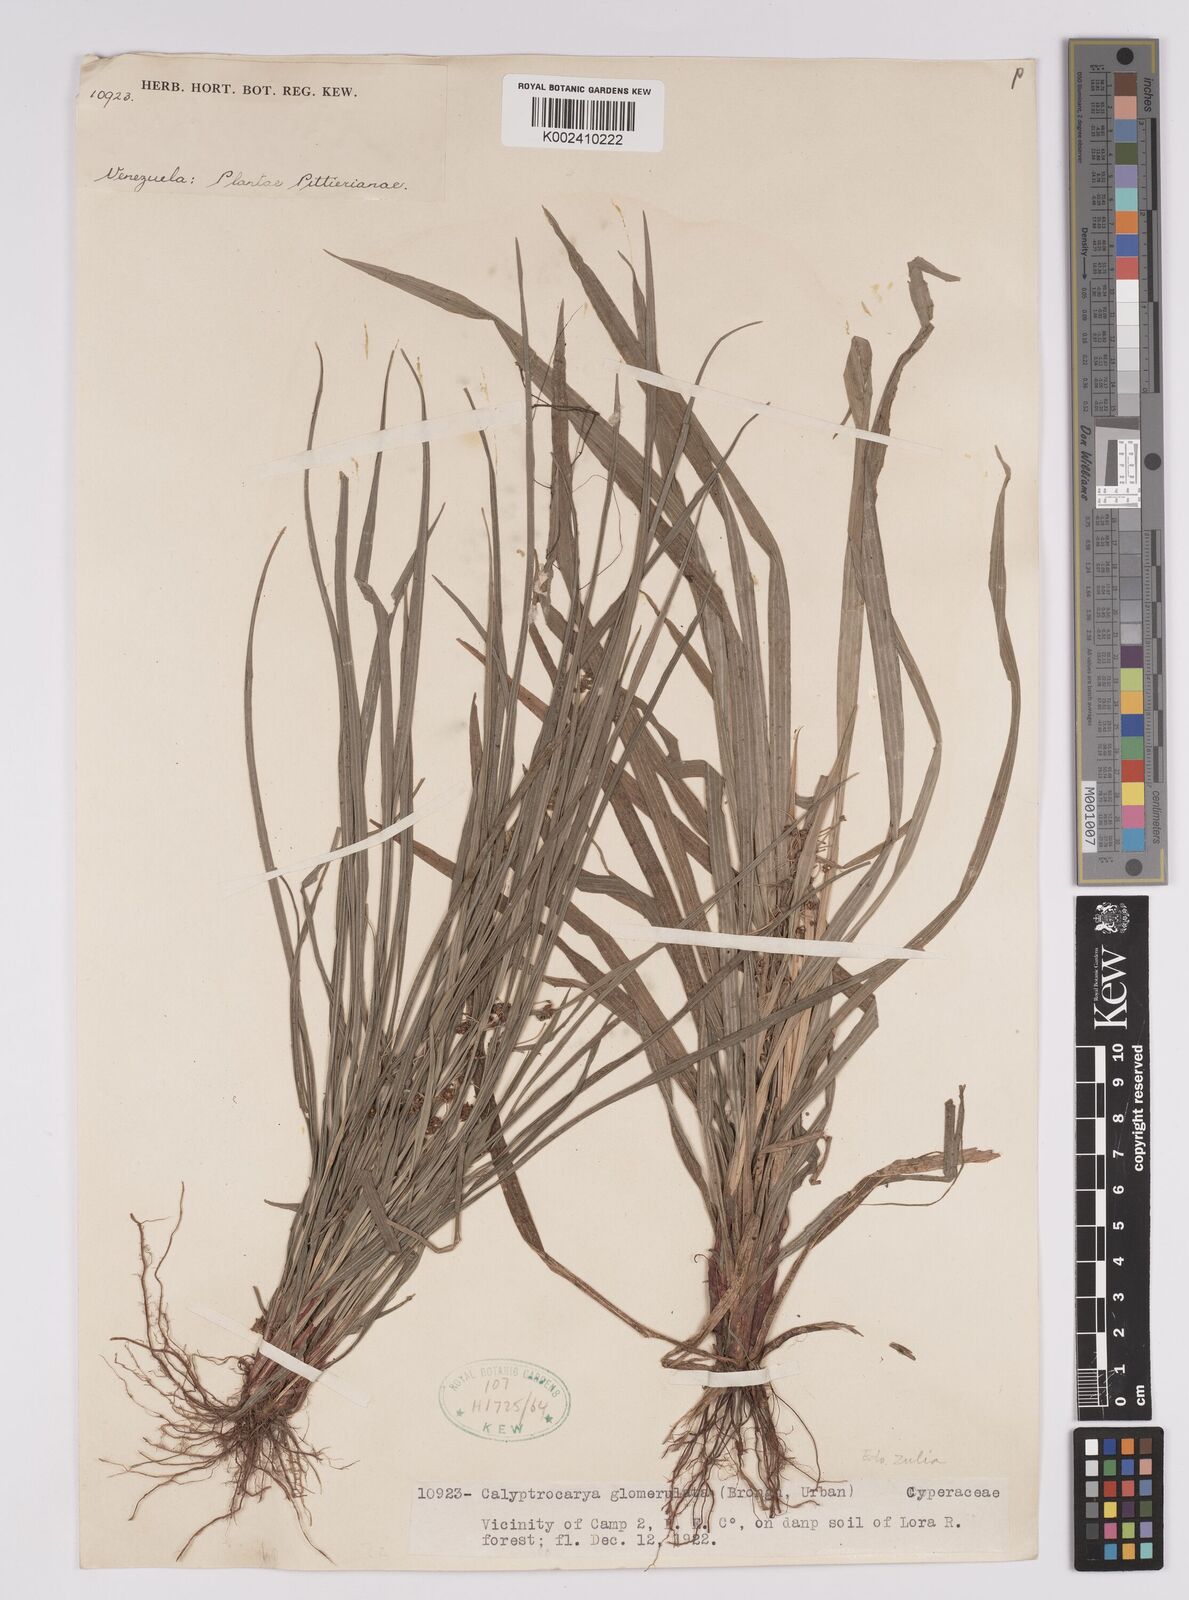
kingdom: Plantae
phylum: Tracheophyta
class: Liliopsida
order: Poales
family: Cyperaceae
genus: Calyptrocarya
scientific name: Calyptrocarya glomerulata
